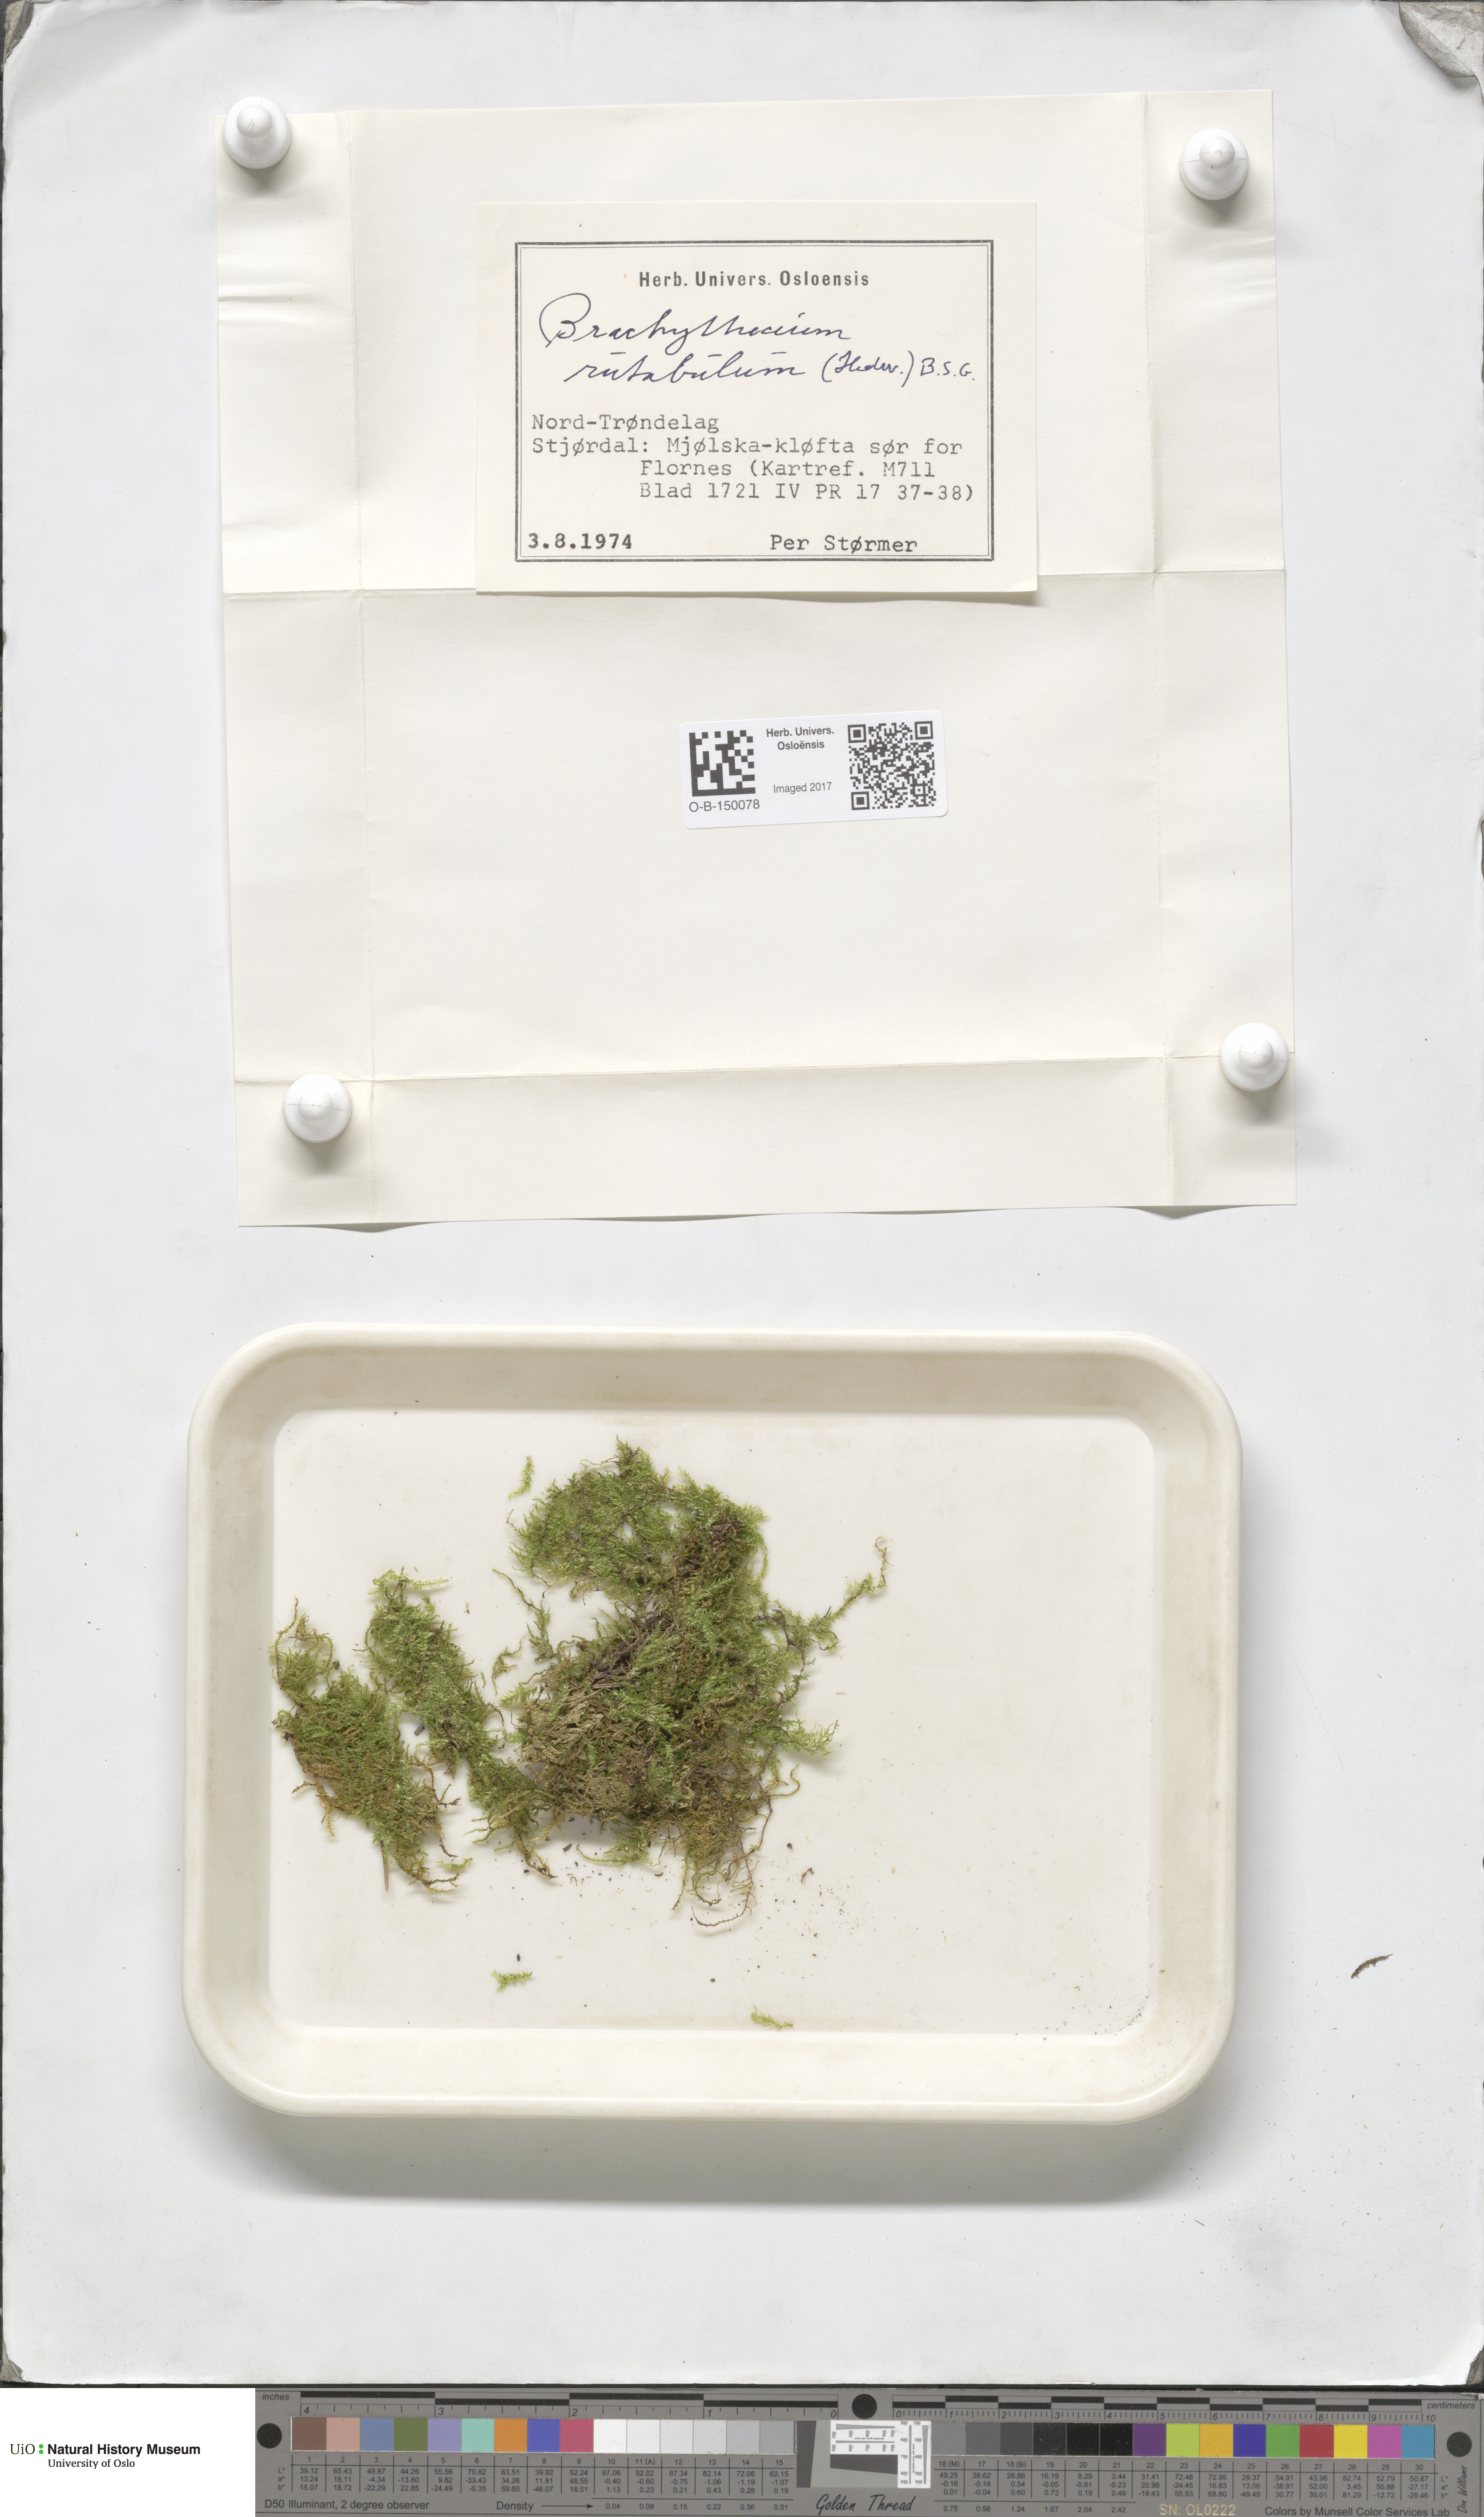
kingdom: Plantae
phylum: Bryophyta
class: Bryopsida
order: Hypnales
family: Brachytheciaceae
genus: Brachythecium
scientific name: Brachythecium rutabulum
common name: Rough-stalked feather-moss
